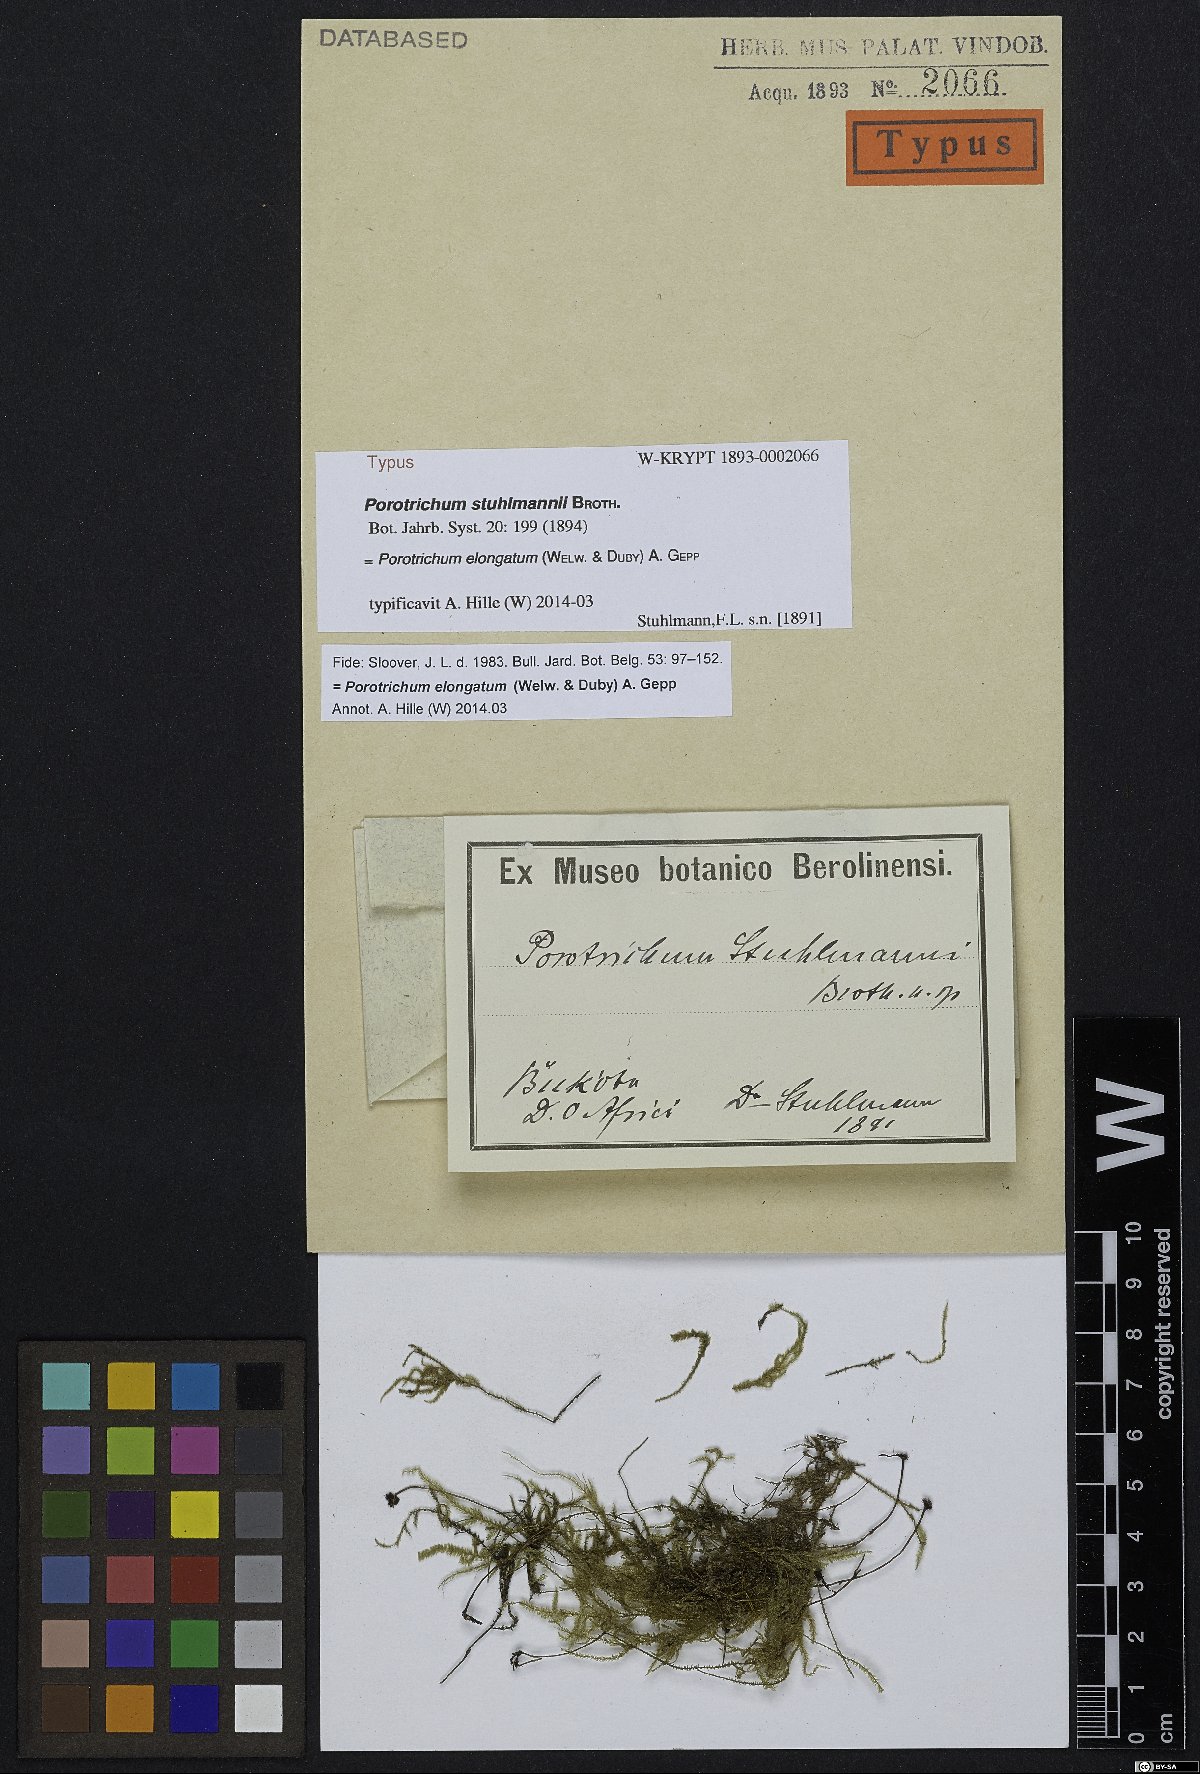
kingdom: Plantae
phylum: Bryophyta
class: Bryopsida
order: Hypnales
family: Orthostichellaceae
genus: Scabrellifolium
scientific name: Scabrellifolium elongatum
